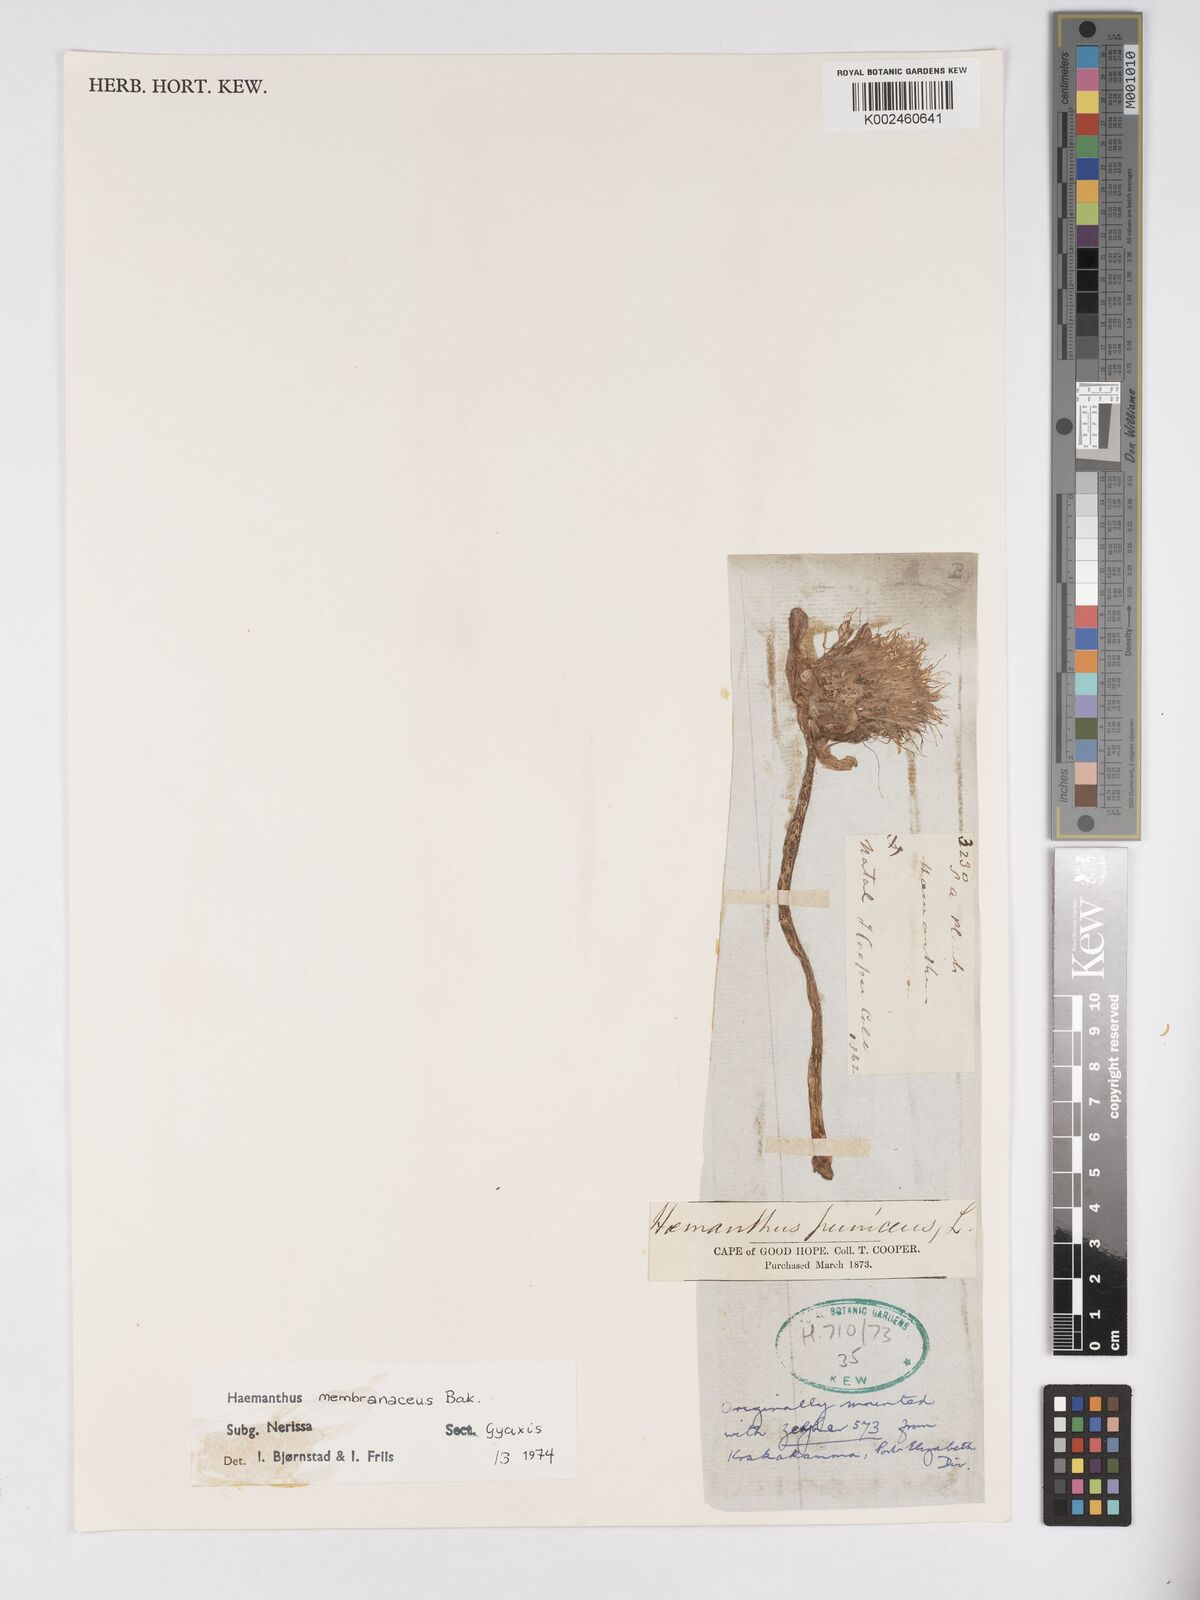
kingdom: Plantae
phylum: Tracheophyta
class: Liliopsida
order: Asparagales
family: Amaryllidaceae
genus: Scadoxus
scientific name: Scadoxus membranaceus
